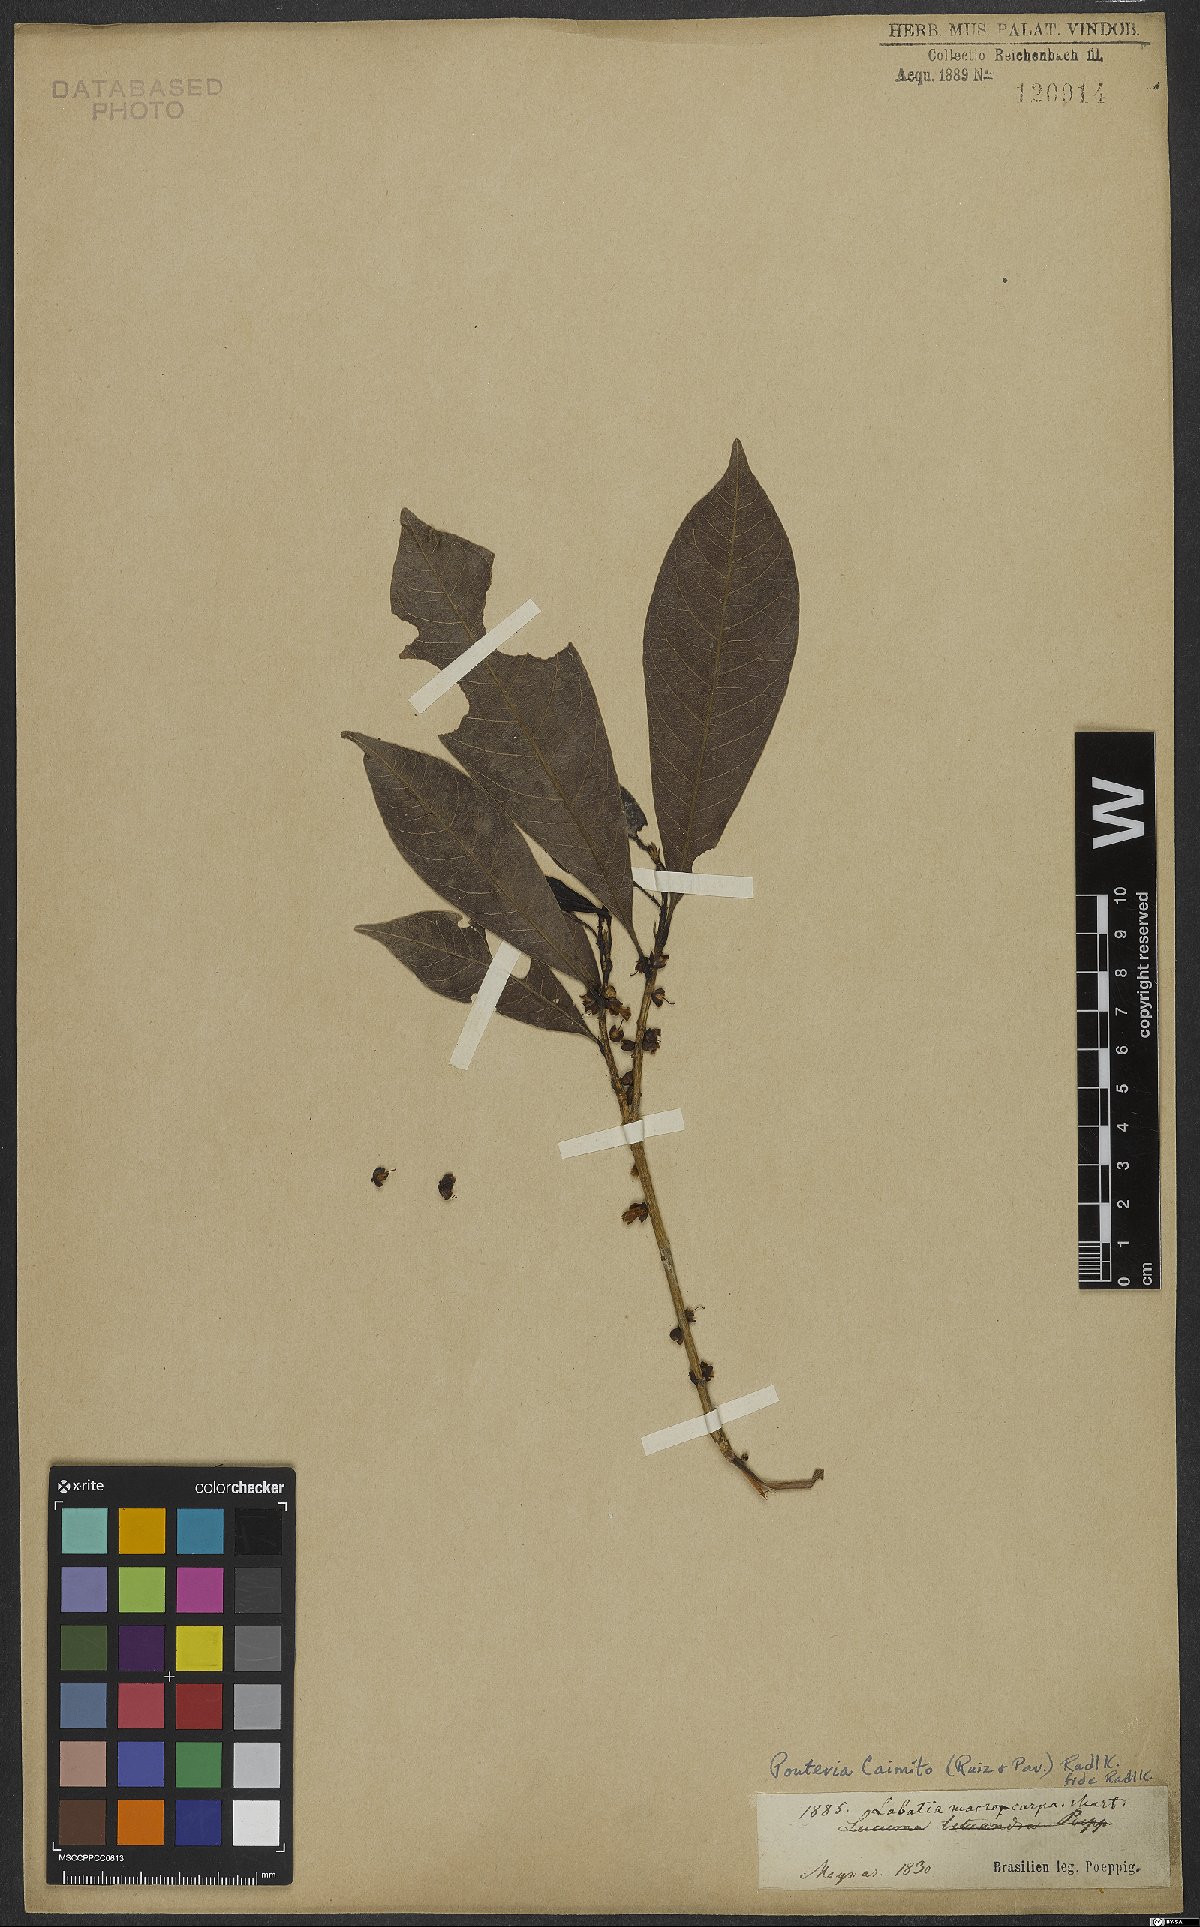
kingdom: Plantae
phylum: Tracheophyta
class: Magnoliopsida
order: Ericales
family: Sapotaceae
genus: Pouteria
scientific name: Pouteria caimito
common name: Caimito
